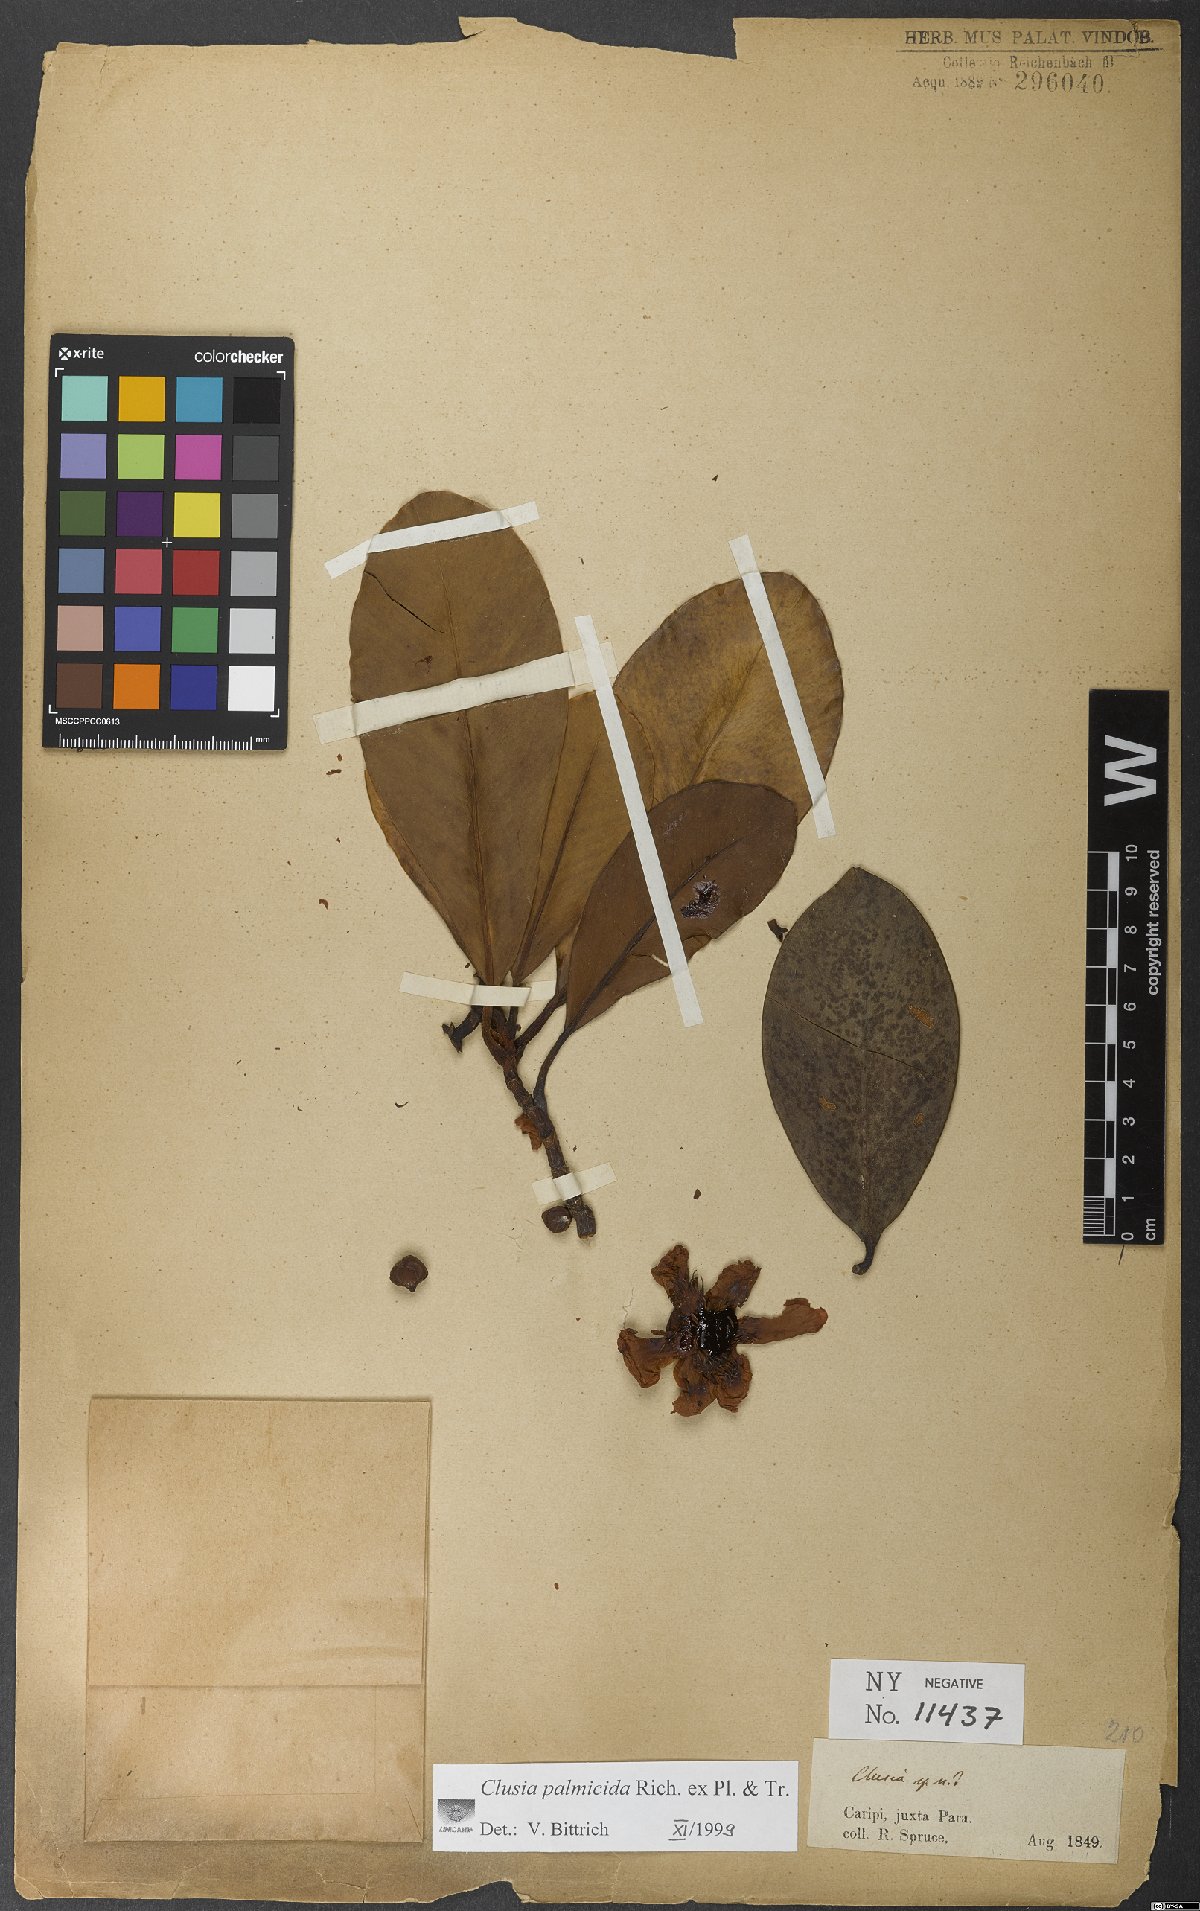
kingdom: Plantae
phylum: Tracheophyta
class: Magnoliopsida
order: Malpighiales
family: Clusiaceae
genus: Clusia
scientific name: Clusia palmicida
